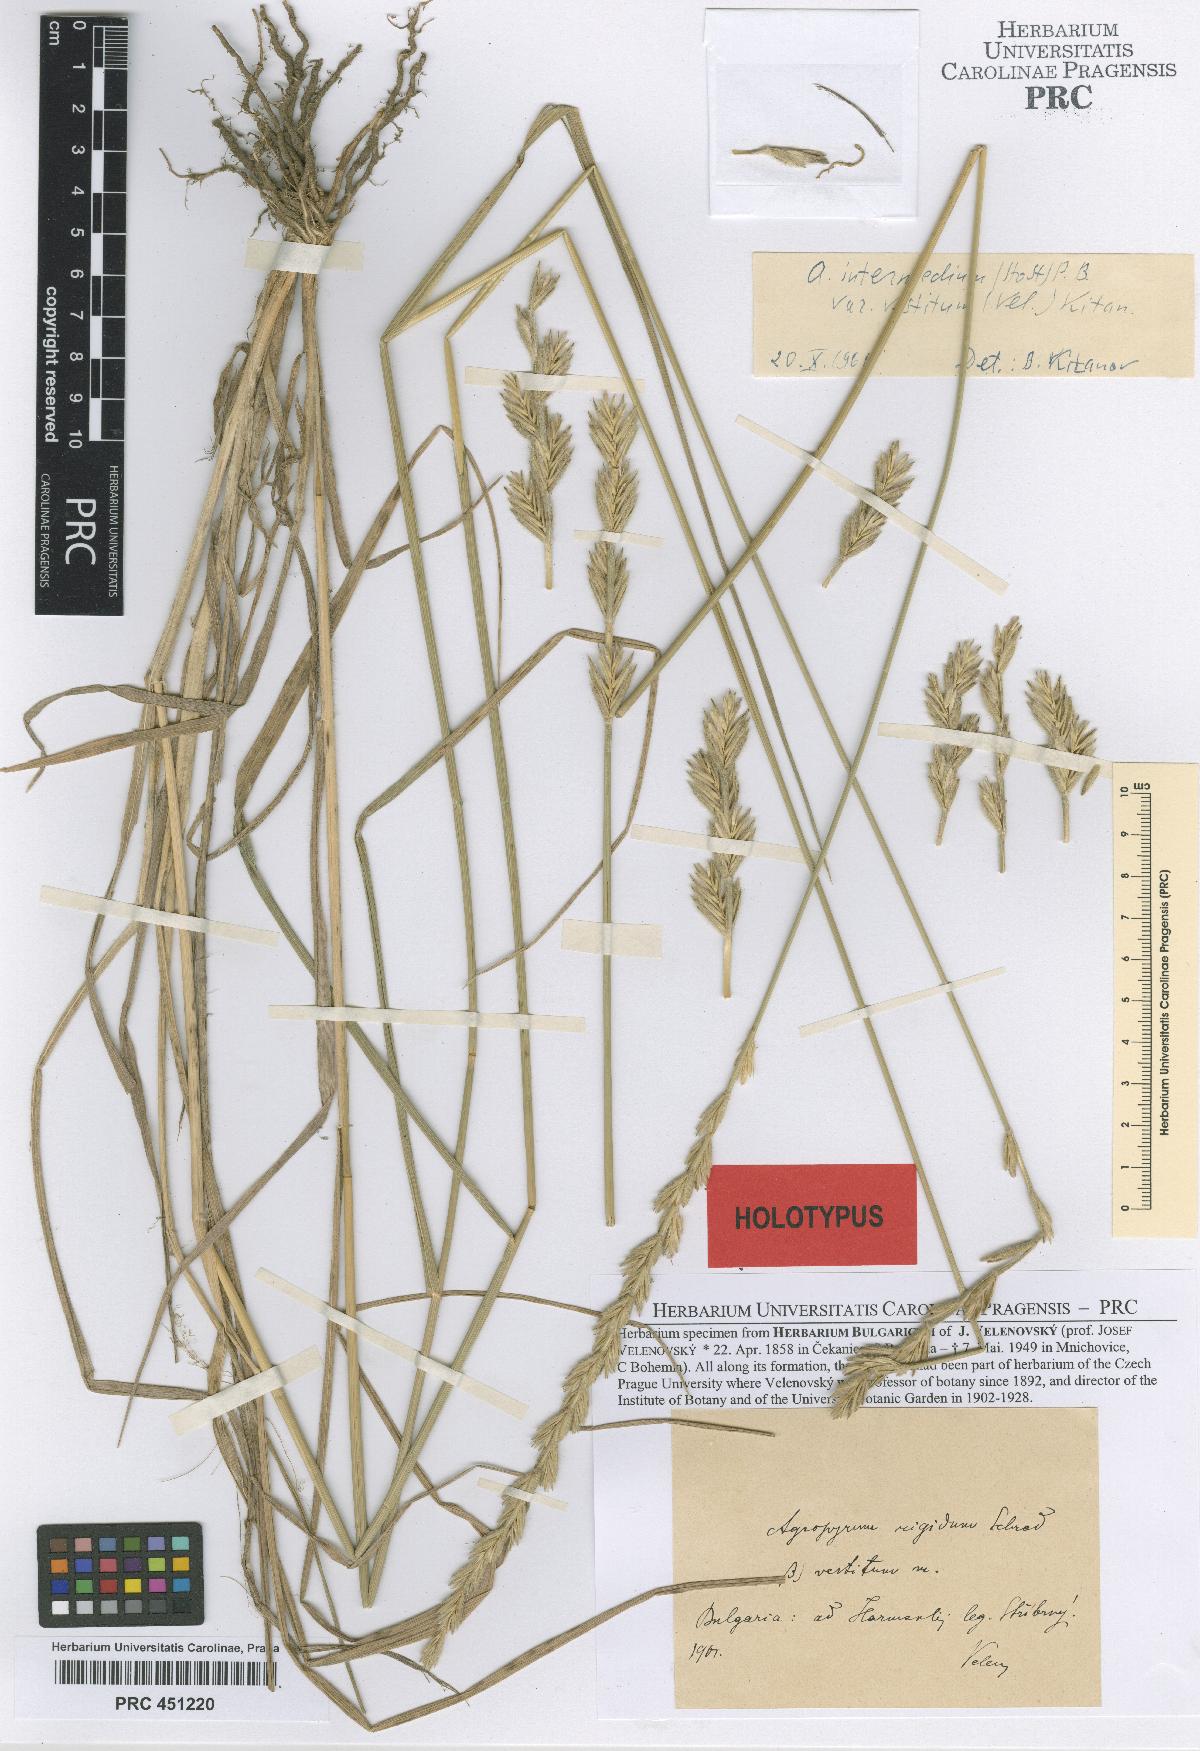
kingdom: Plantae
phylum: Tracheophyta
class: Liliopsida
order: Poales
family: Poaceae
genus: Thinopyrum
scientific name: Thinopyrum intermedium
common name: Intermediate wheatgrass
